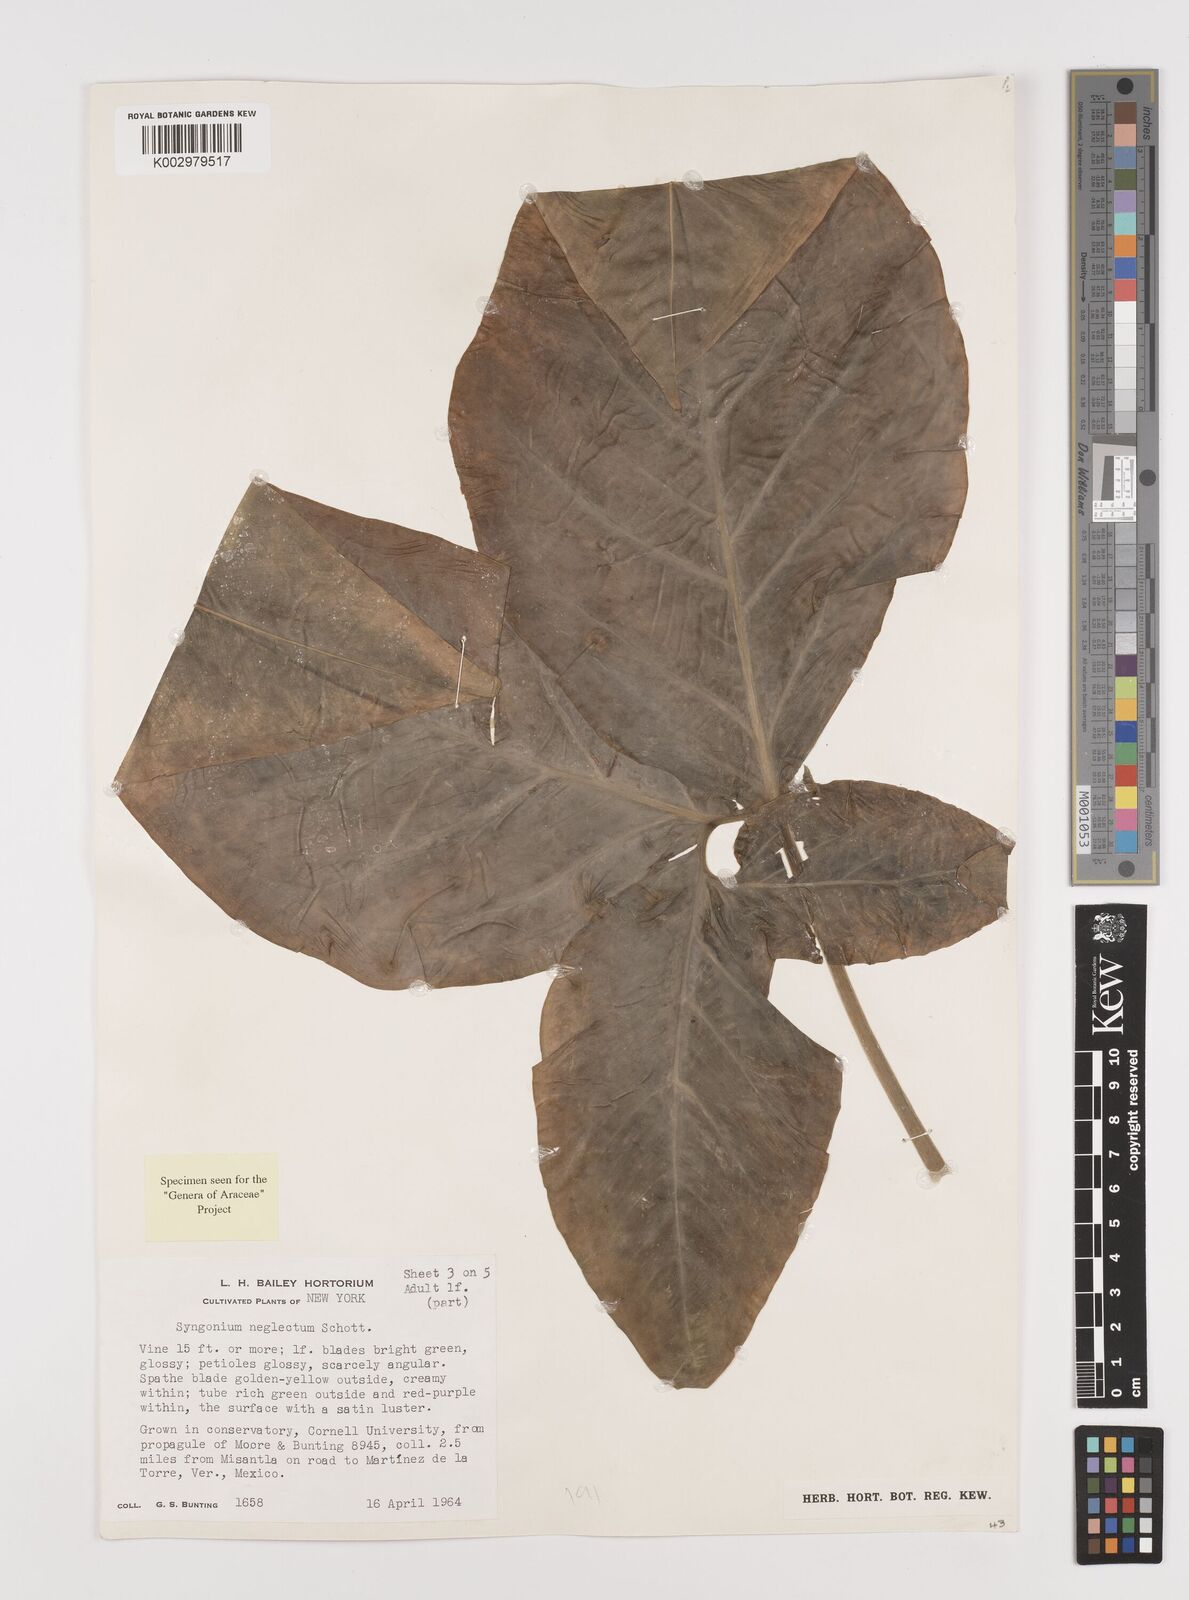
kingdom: Plantae
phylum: Tracheophyta
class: Liliopsida
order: Alismatales
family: Araceae
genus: Syngonium
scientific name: Syngonium neglectum
